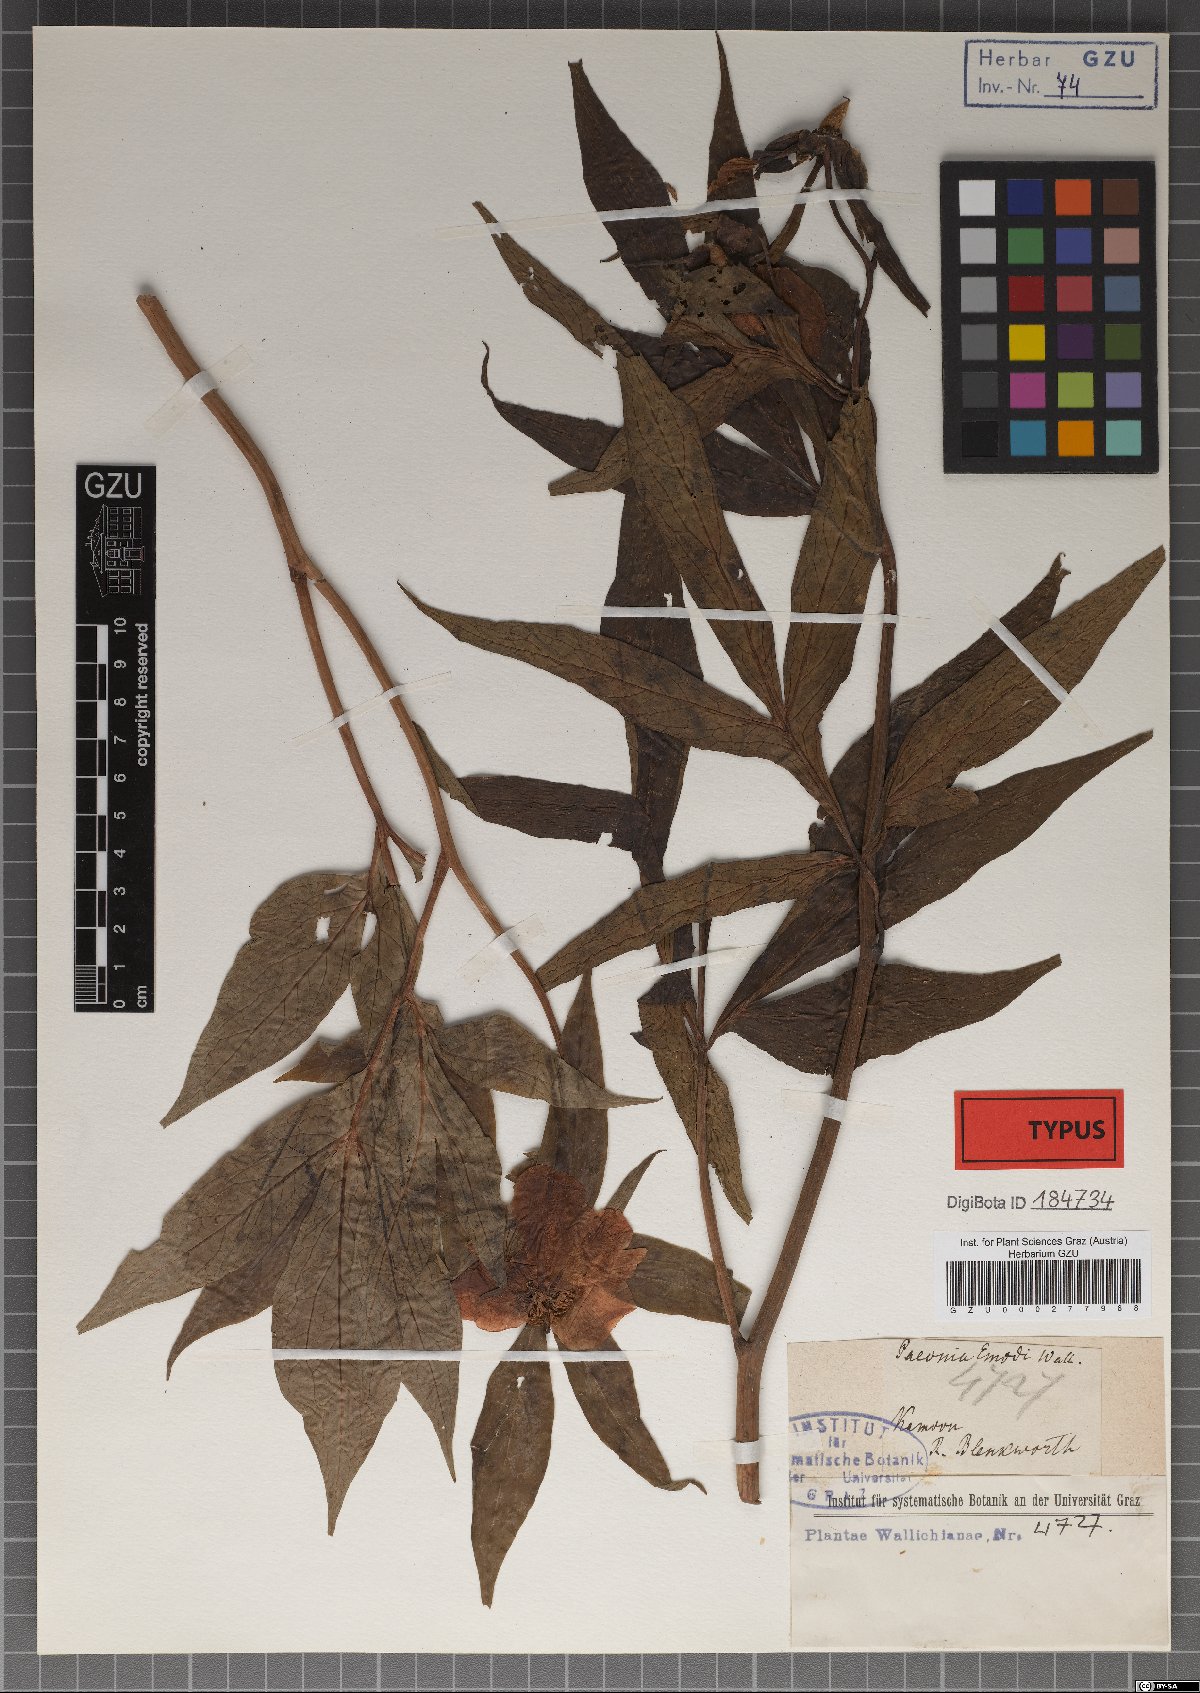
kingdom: Plantae
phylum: Tracheophyta
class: Magnoliopsida
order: Saxifragales
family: Paeoniaceae
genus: Paeonia
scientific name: Paeonia emodi
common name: Himalayan peony
